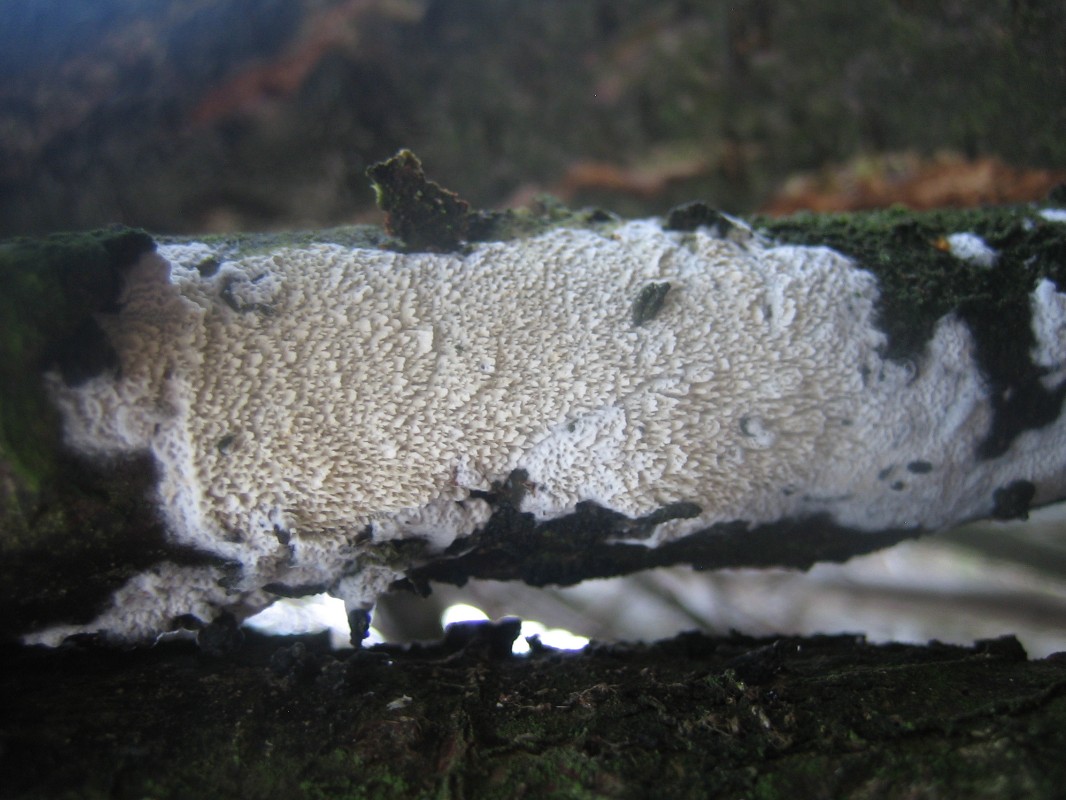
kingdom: Fungi
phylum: Basidiomycota
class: Agaricomycetes
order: Hymenochaetales
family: Schizoporaceae
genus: Schizopora
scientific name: Schizopora paradoxa
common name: hvid tandsvamp
